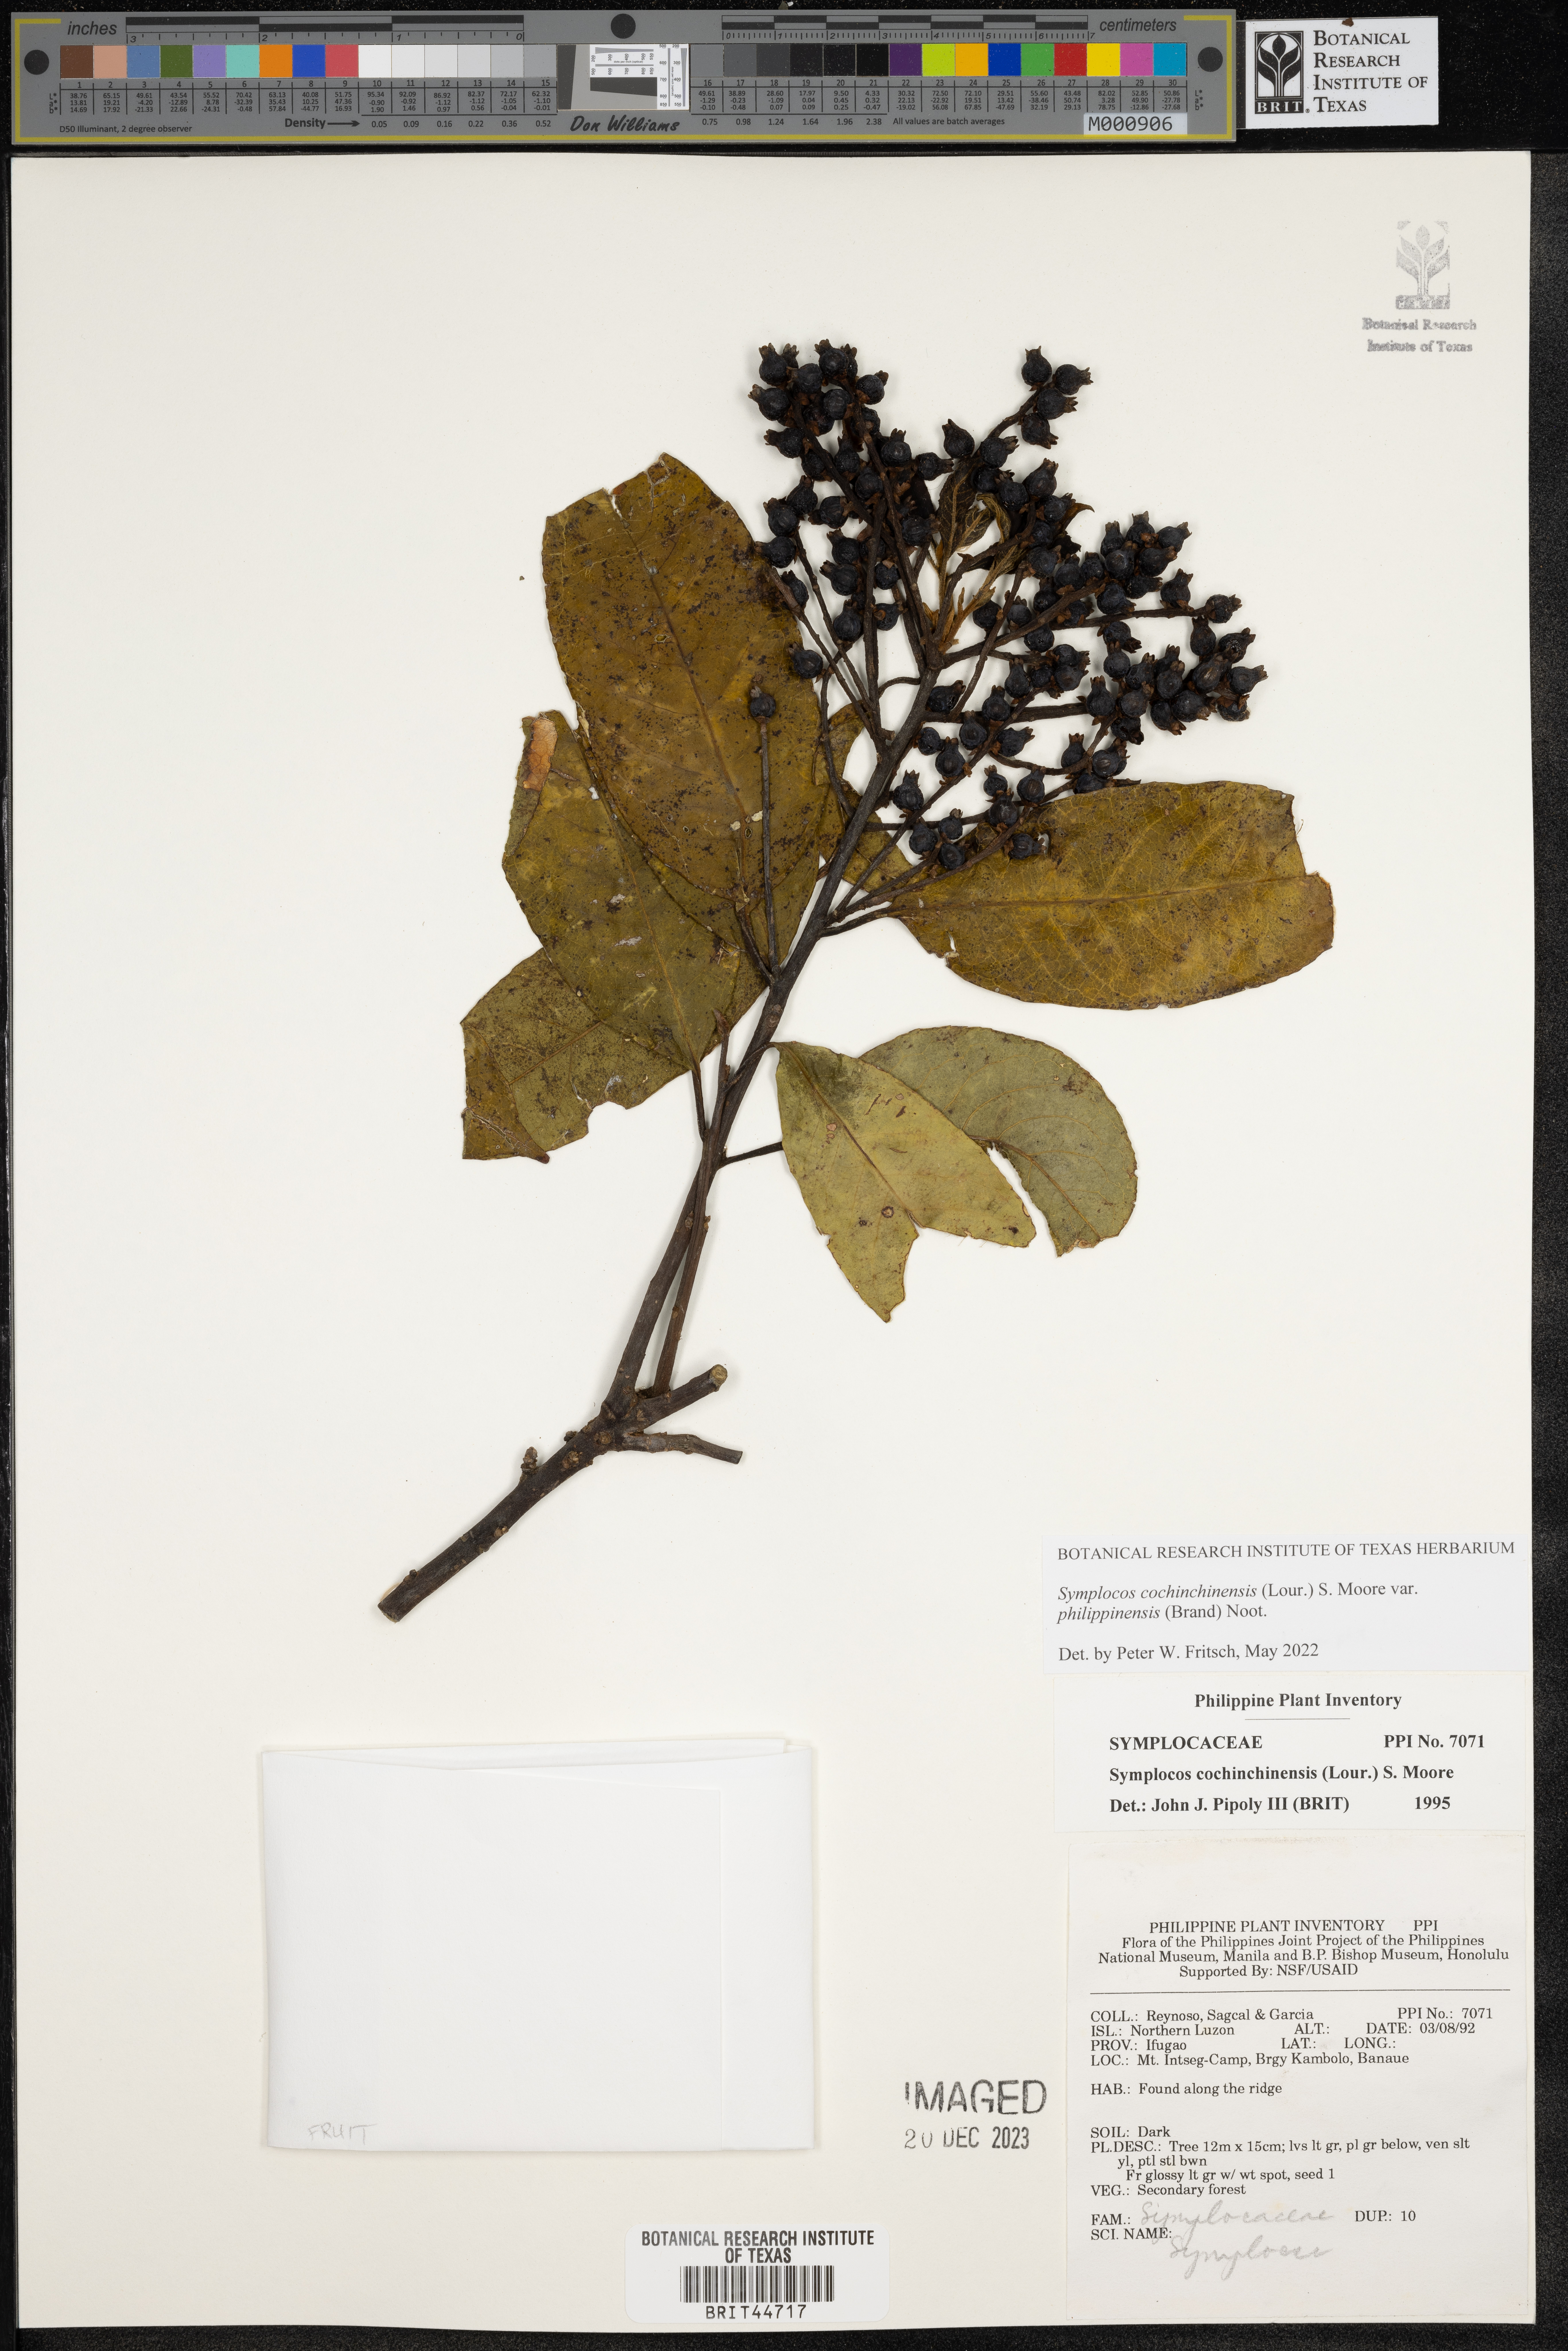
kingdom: Plantae
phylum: Tracheophyta
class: Magnoliopsida
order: Ericales
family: Symplocaceae
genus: Symplocos
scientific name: Symplocos cochinchinensis
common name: Buff hazelwood
